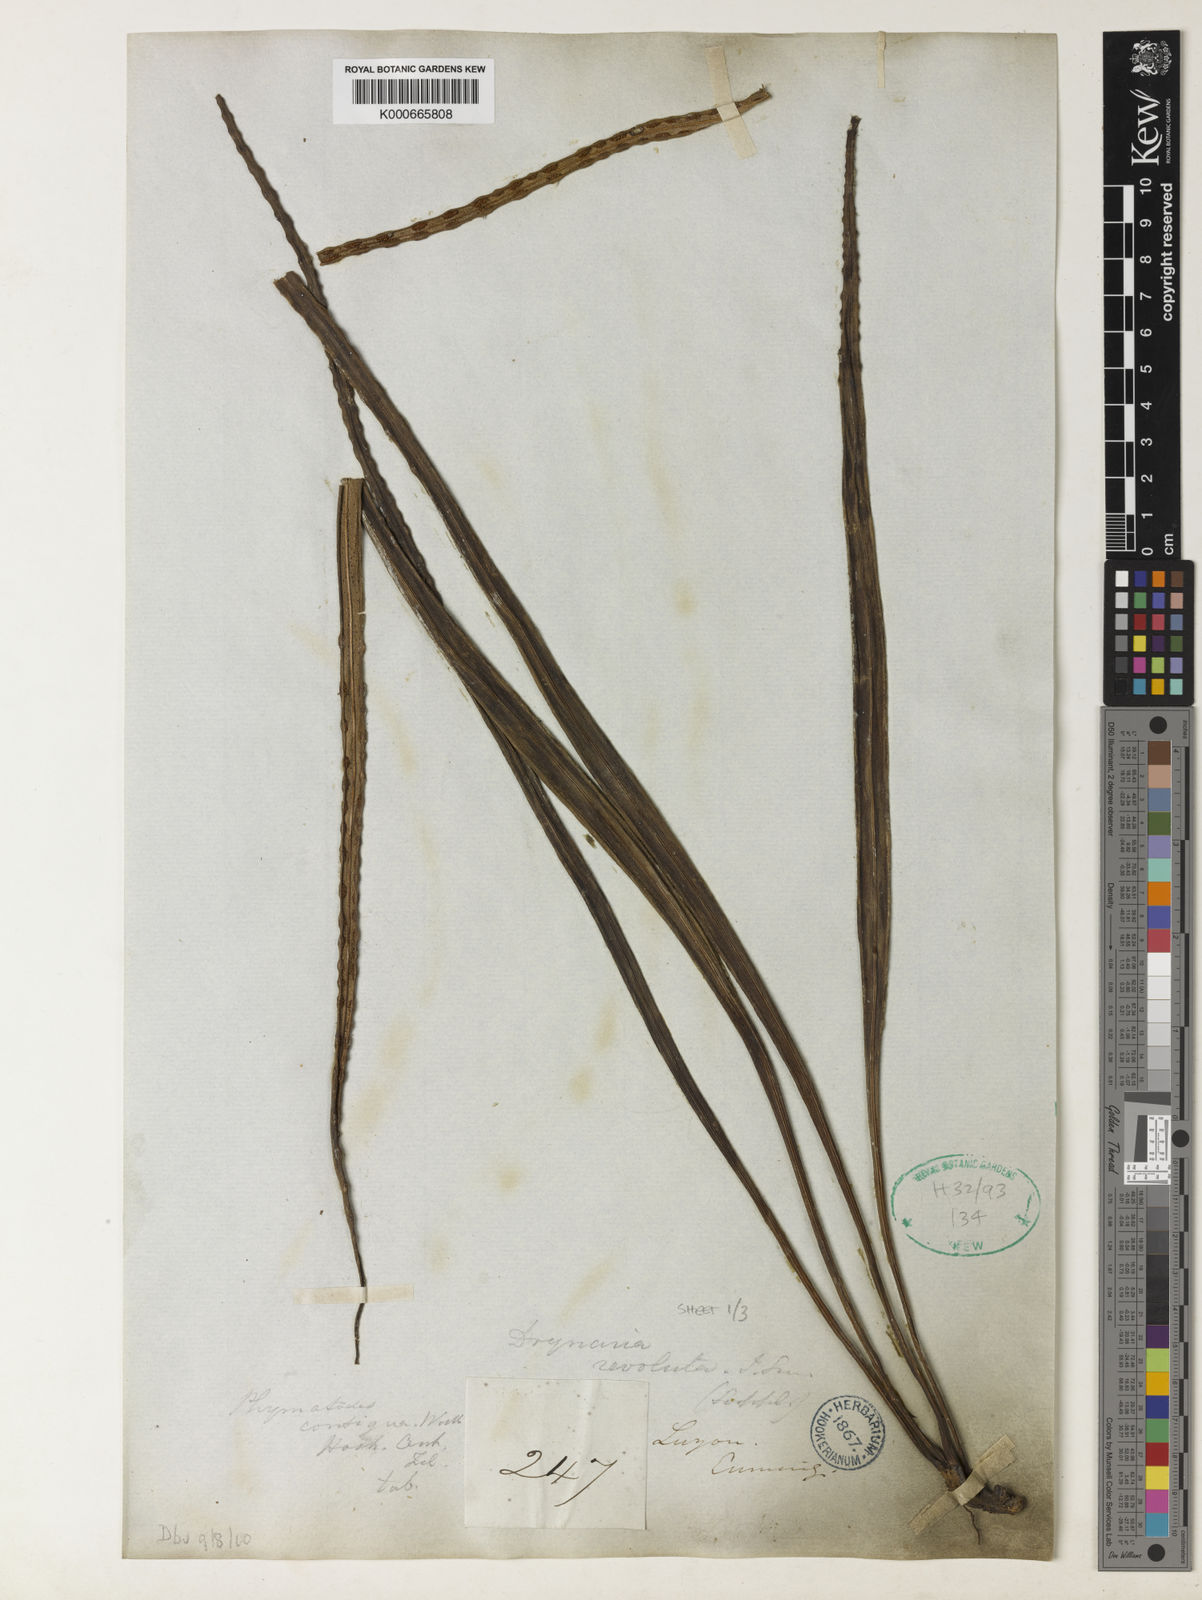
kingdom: Plantae
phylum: Tracheophyta
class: Polypodiopsida
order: Polypodiales
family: Polypodiaceae
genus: Lepisorus
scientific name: Lepisorus longifolius
